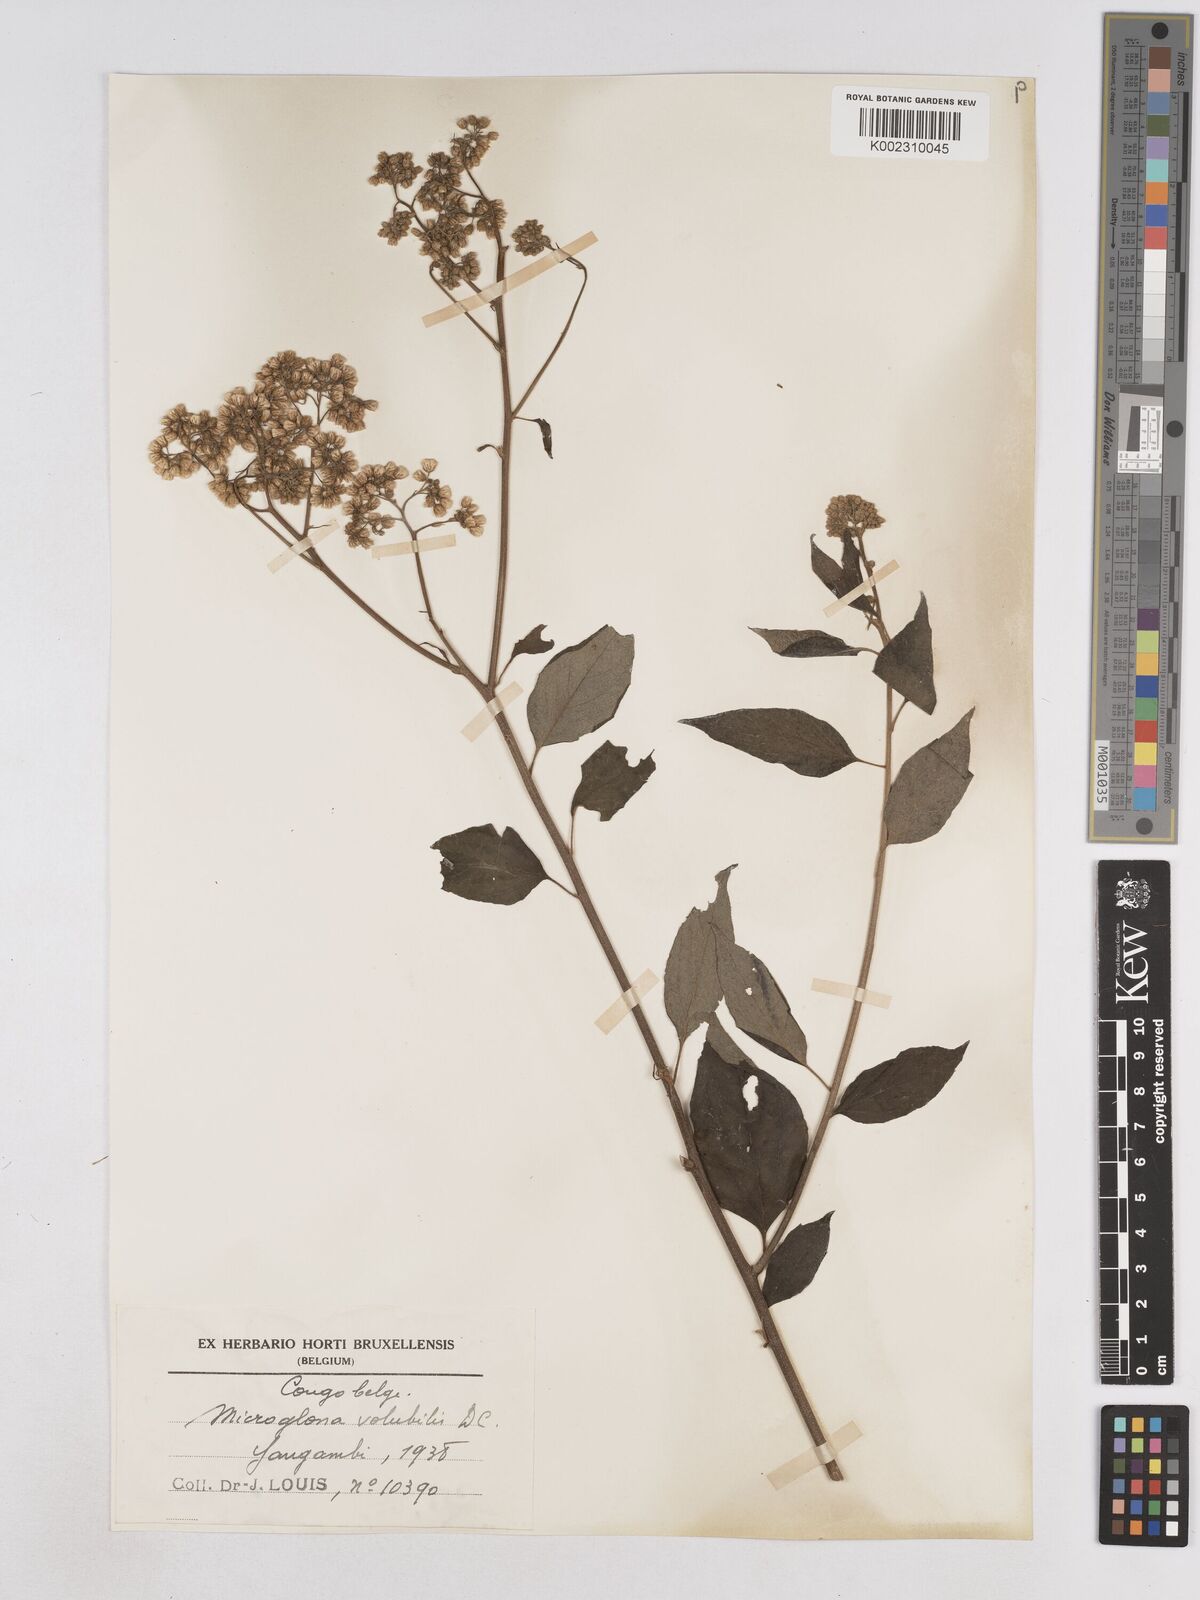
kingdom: Plantae
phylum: Tracheophyta
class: Magnoliopsida
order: Asterales
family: Asteraceae
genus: Microglossa
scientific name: Microglossa pyrifolia
